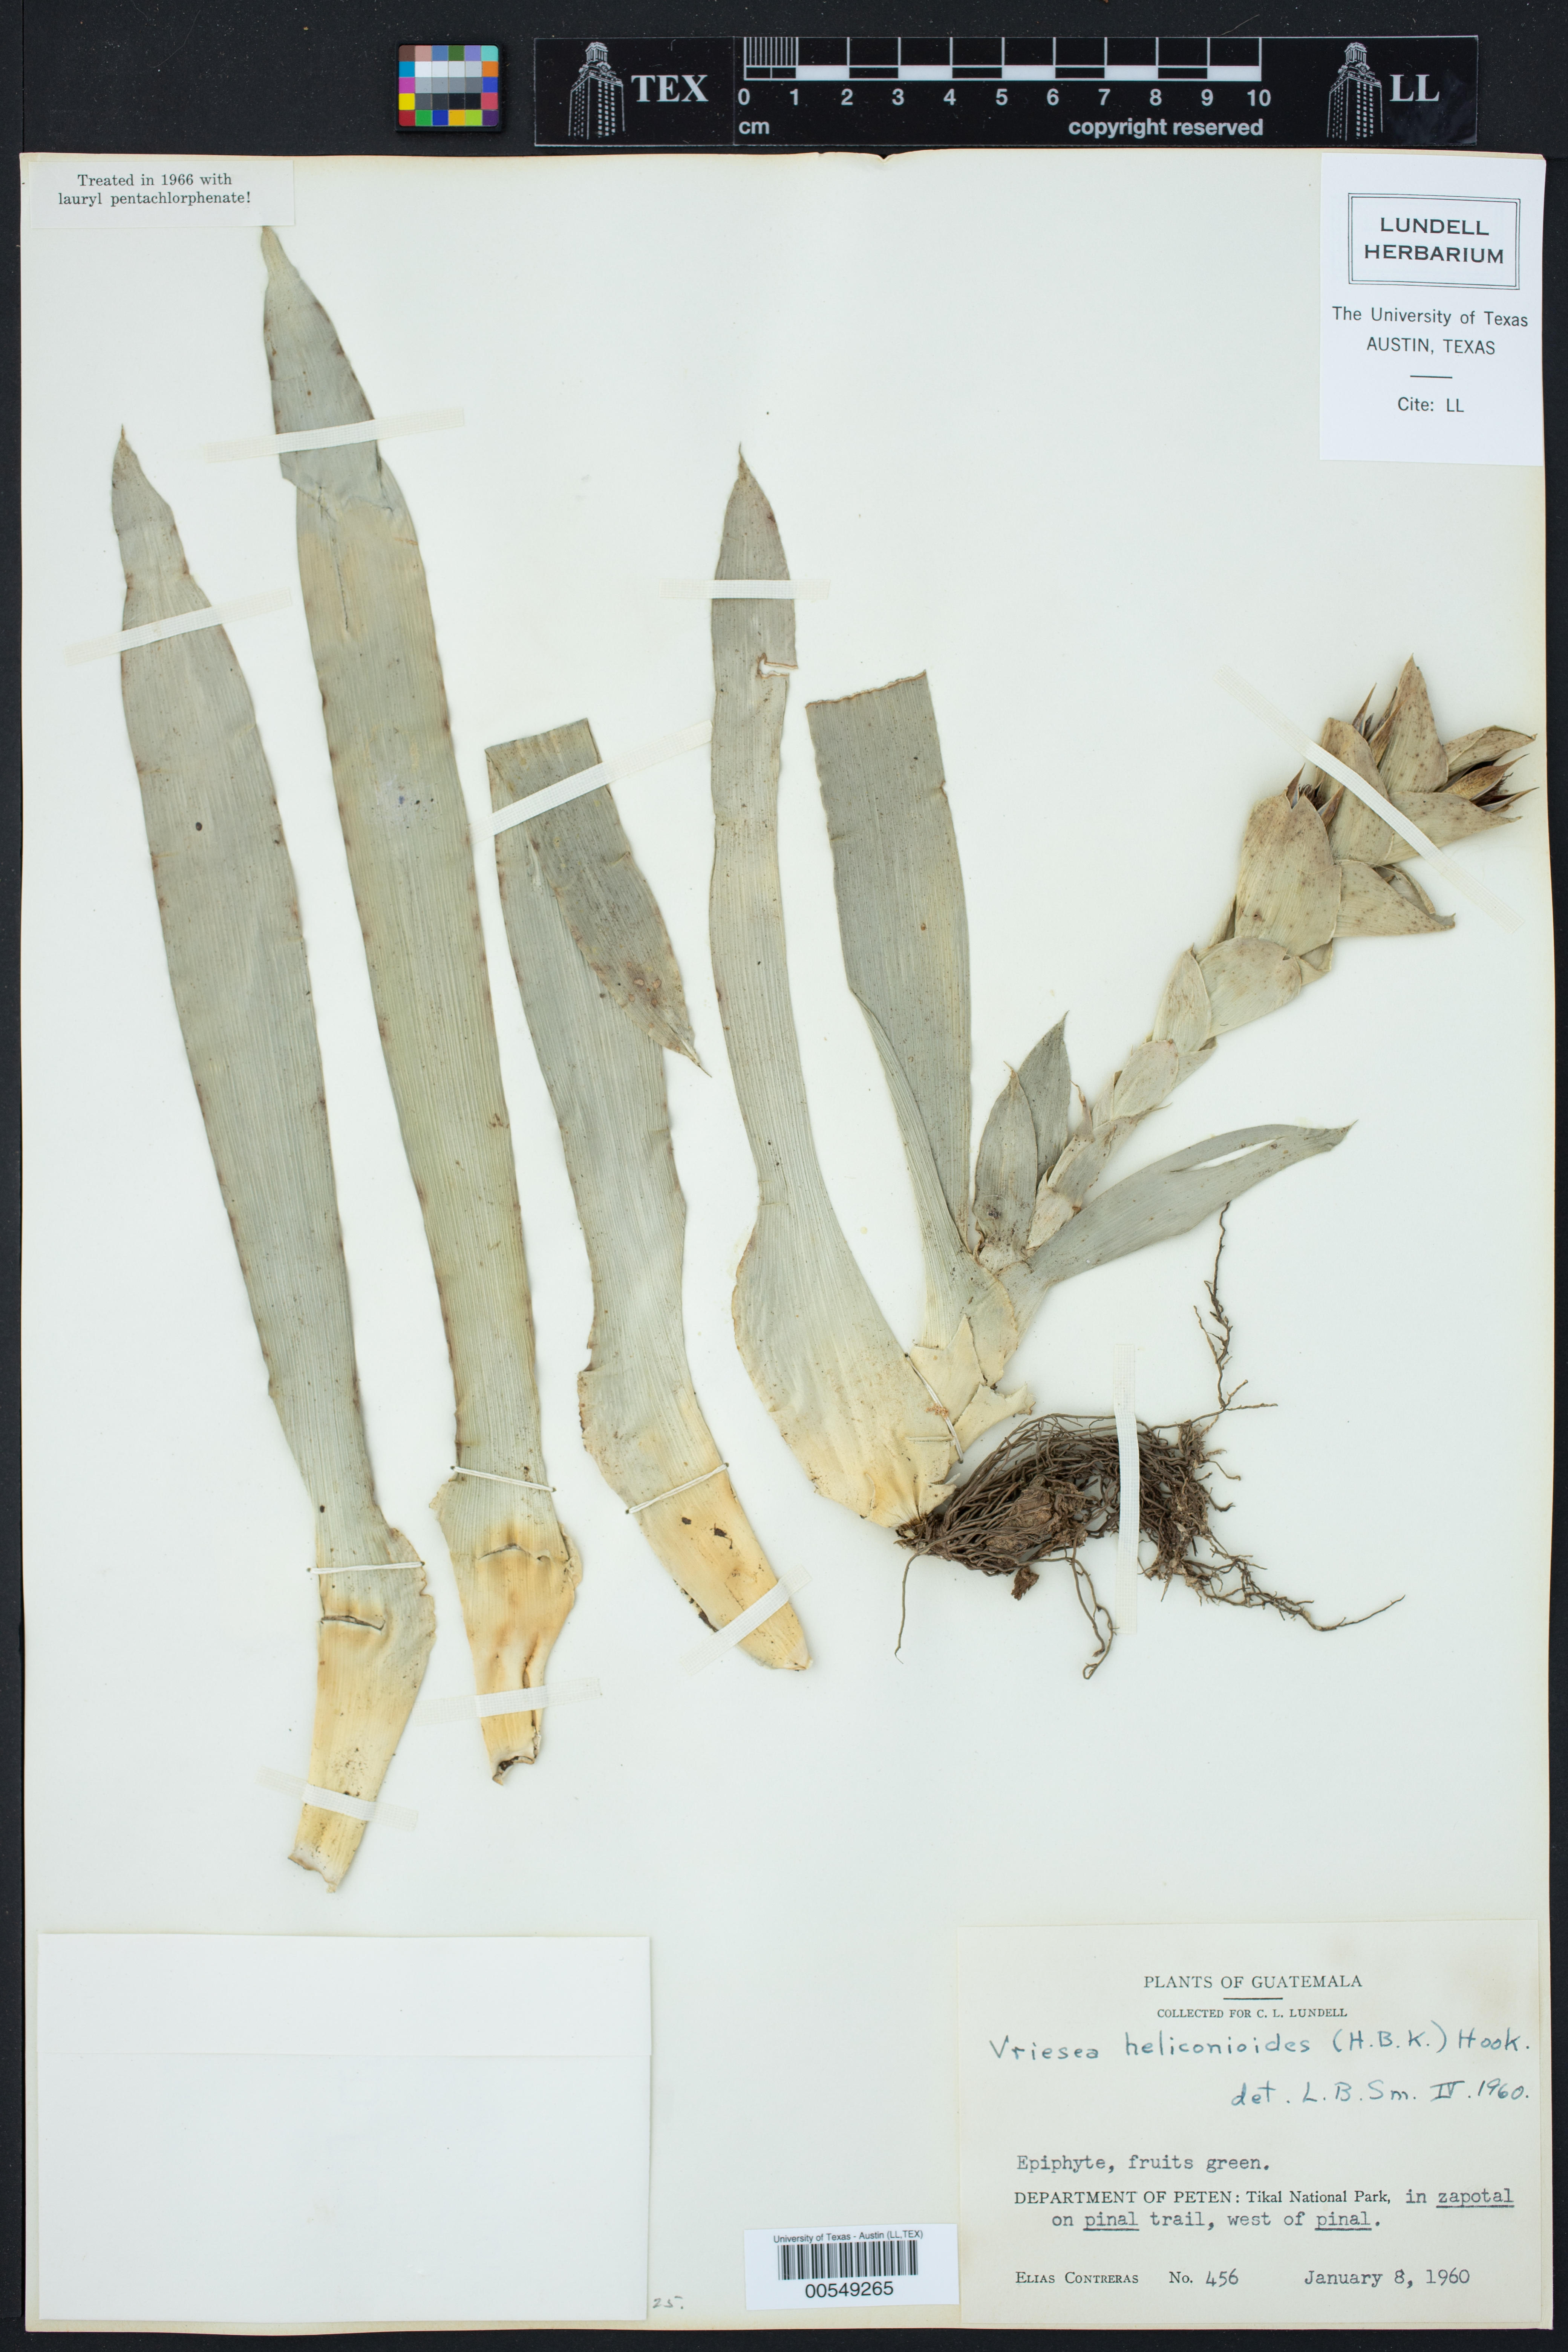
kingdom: Plantae
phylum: Tracheophyta
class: Liliopsida
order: Poales
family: Bromeliaceae
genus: Vriesea
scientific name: Vriesea heliconioides
